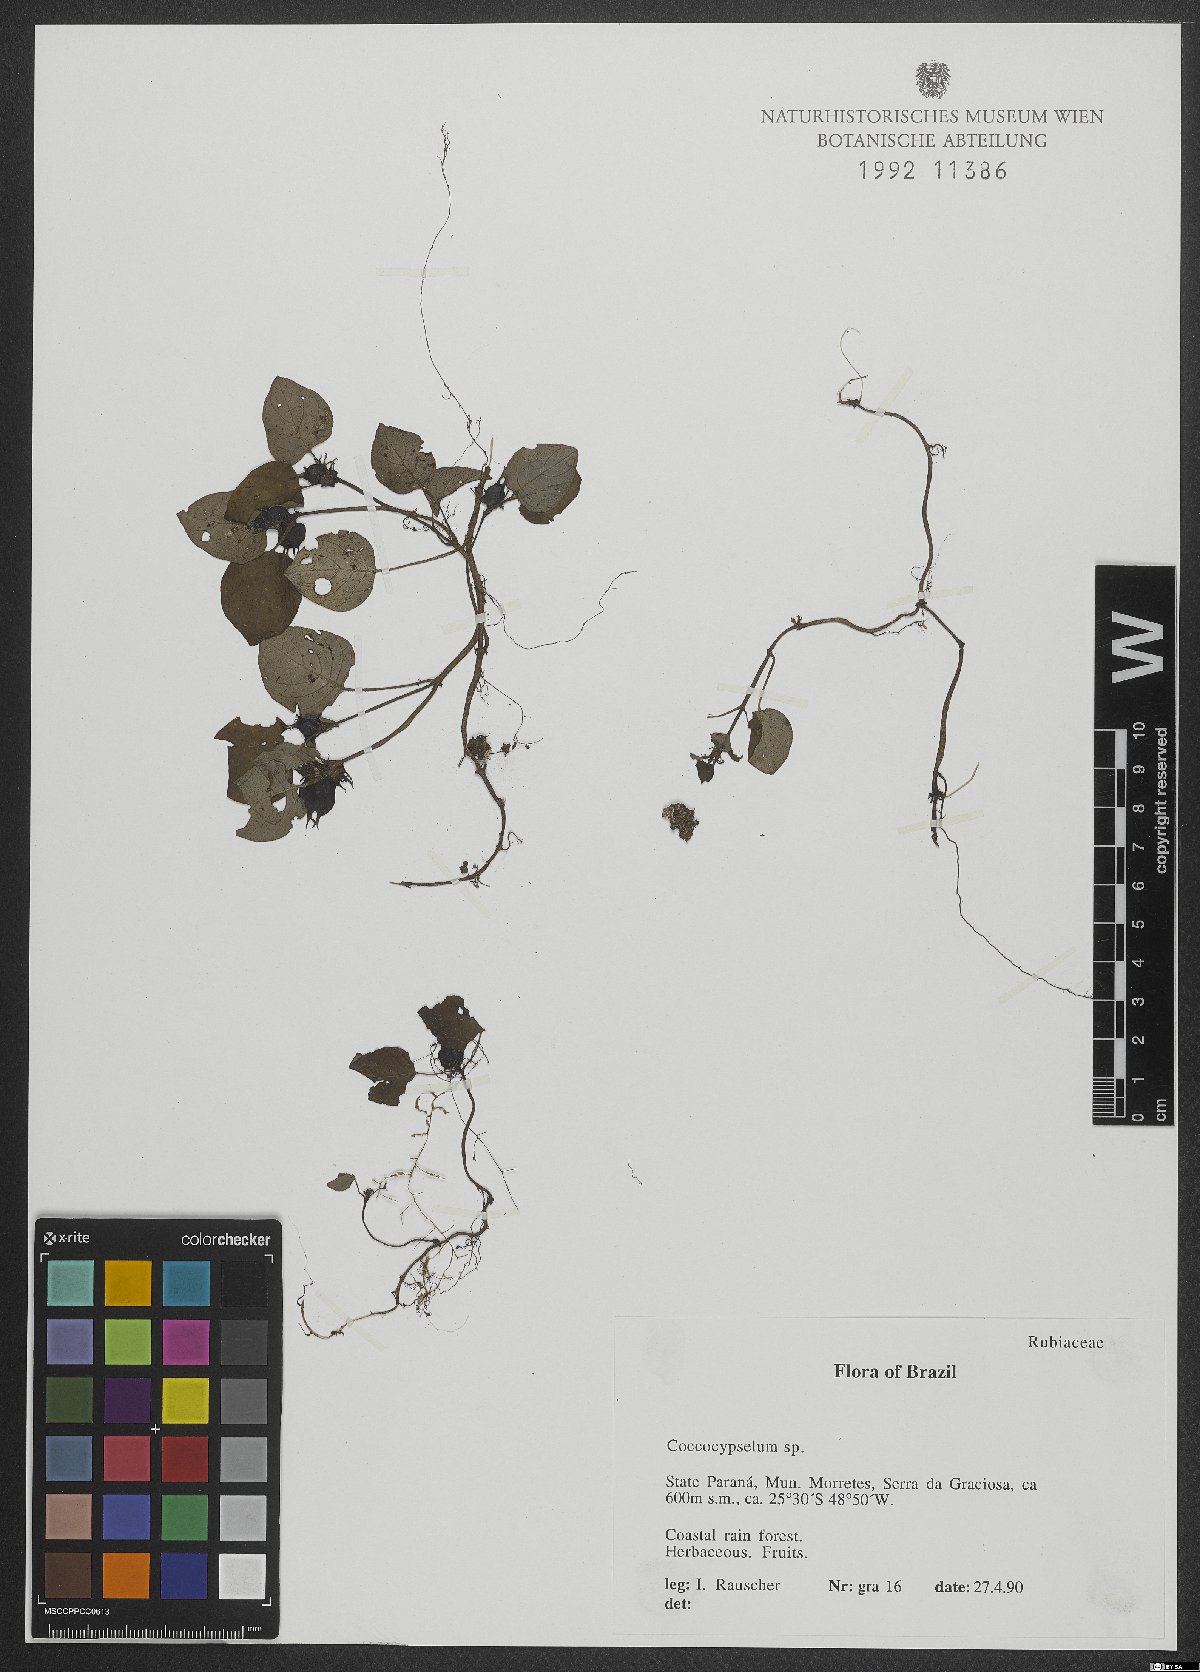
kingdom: Plantae
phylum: Tracheophyta
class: Magnoliopsida
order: Gentianales
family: Rubiaceae
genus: Coccocypselum
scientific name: Coccocypselum
